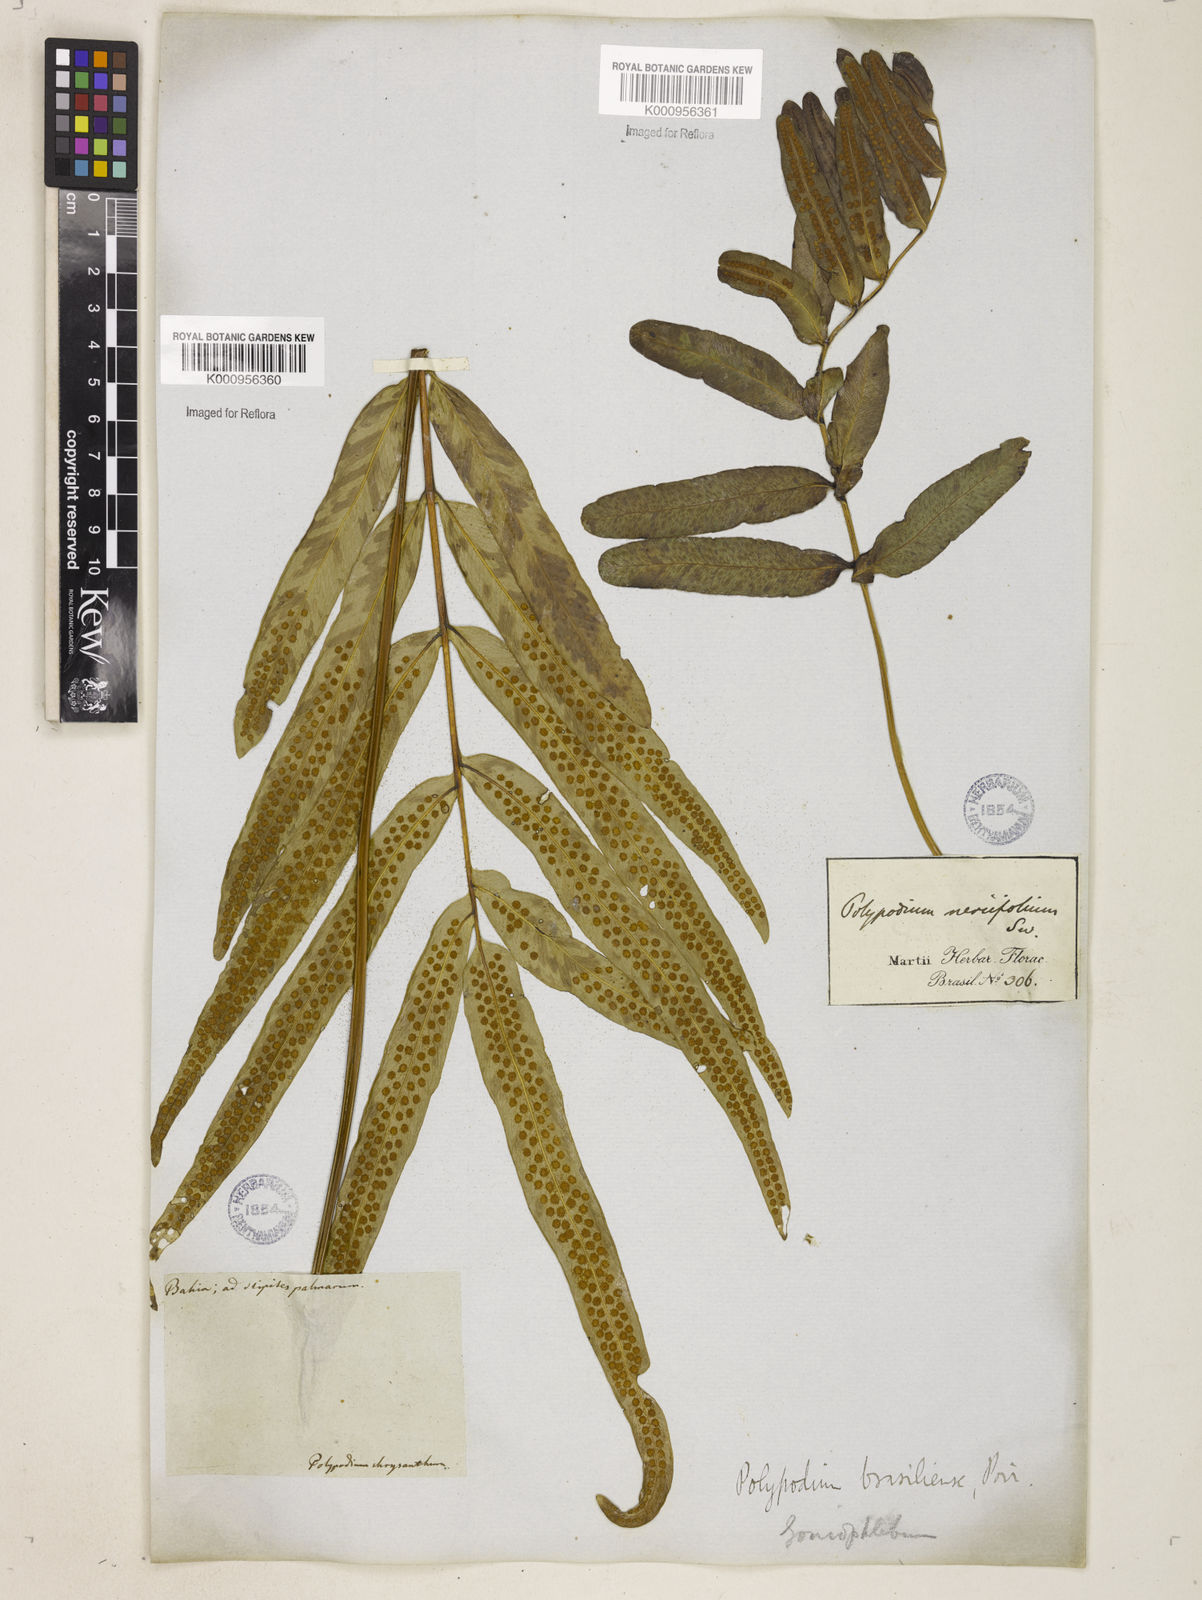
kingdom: Plantae
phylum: Tracheophyta
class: Polypodiopsida
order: Polypodiales
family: Polypodiaceae
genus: Serpocaulon
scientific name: Serpocaulon triseriale
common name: Angle-vein fern
